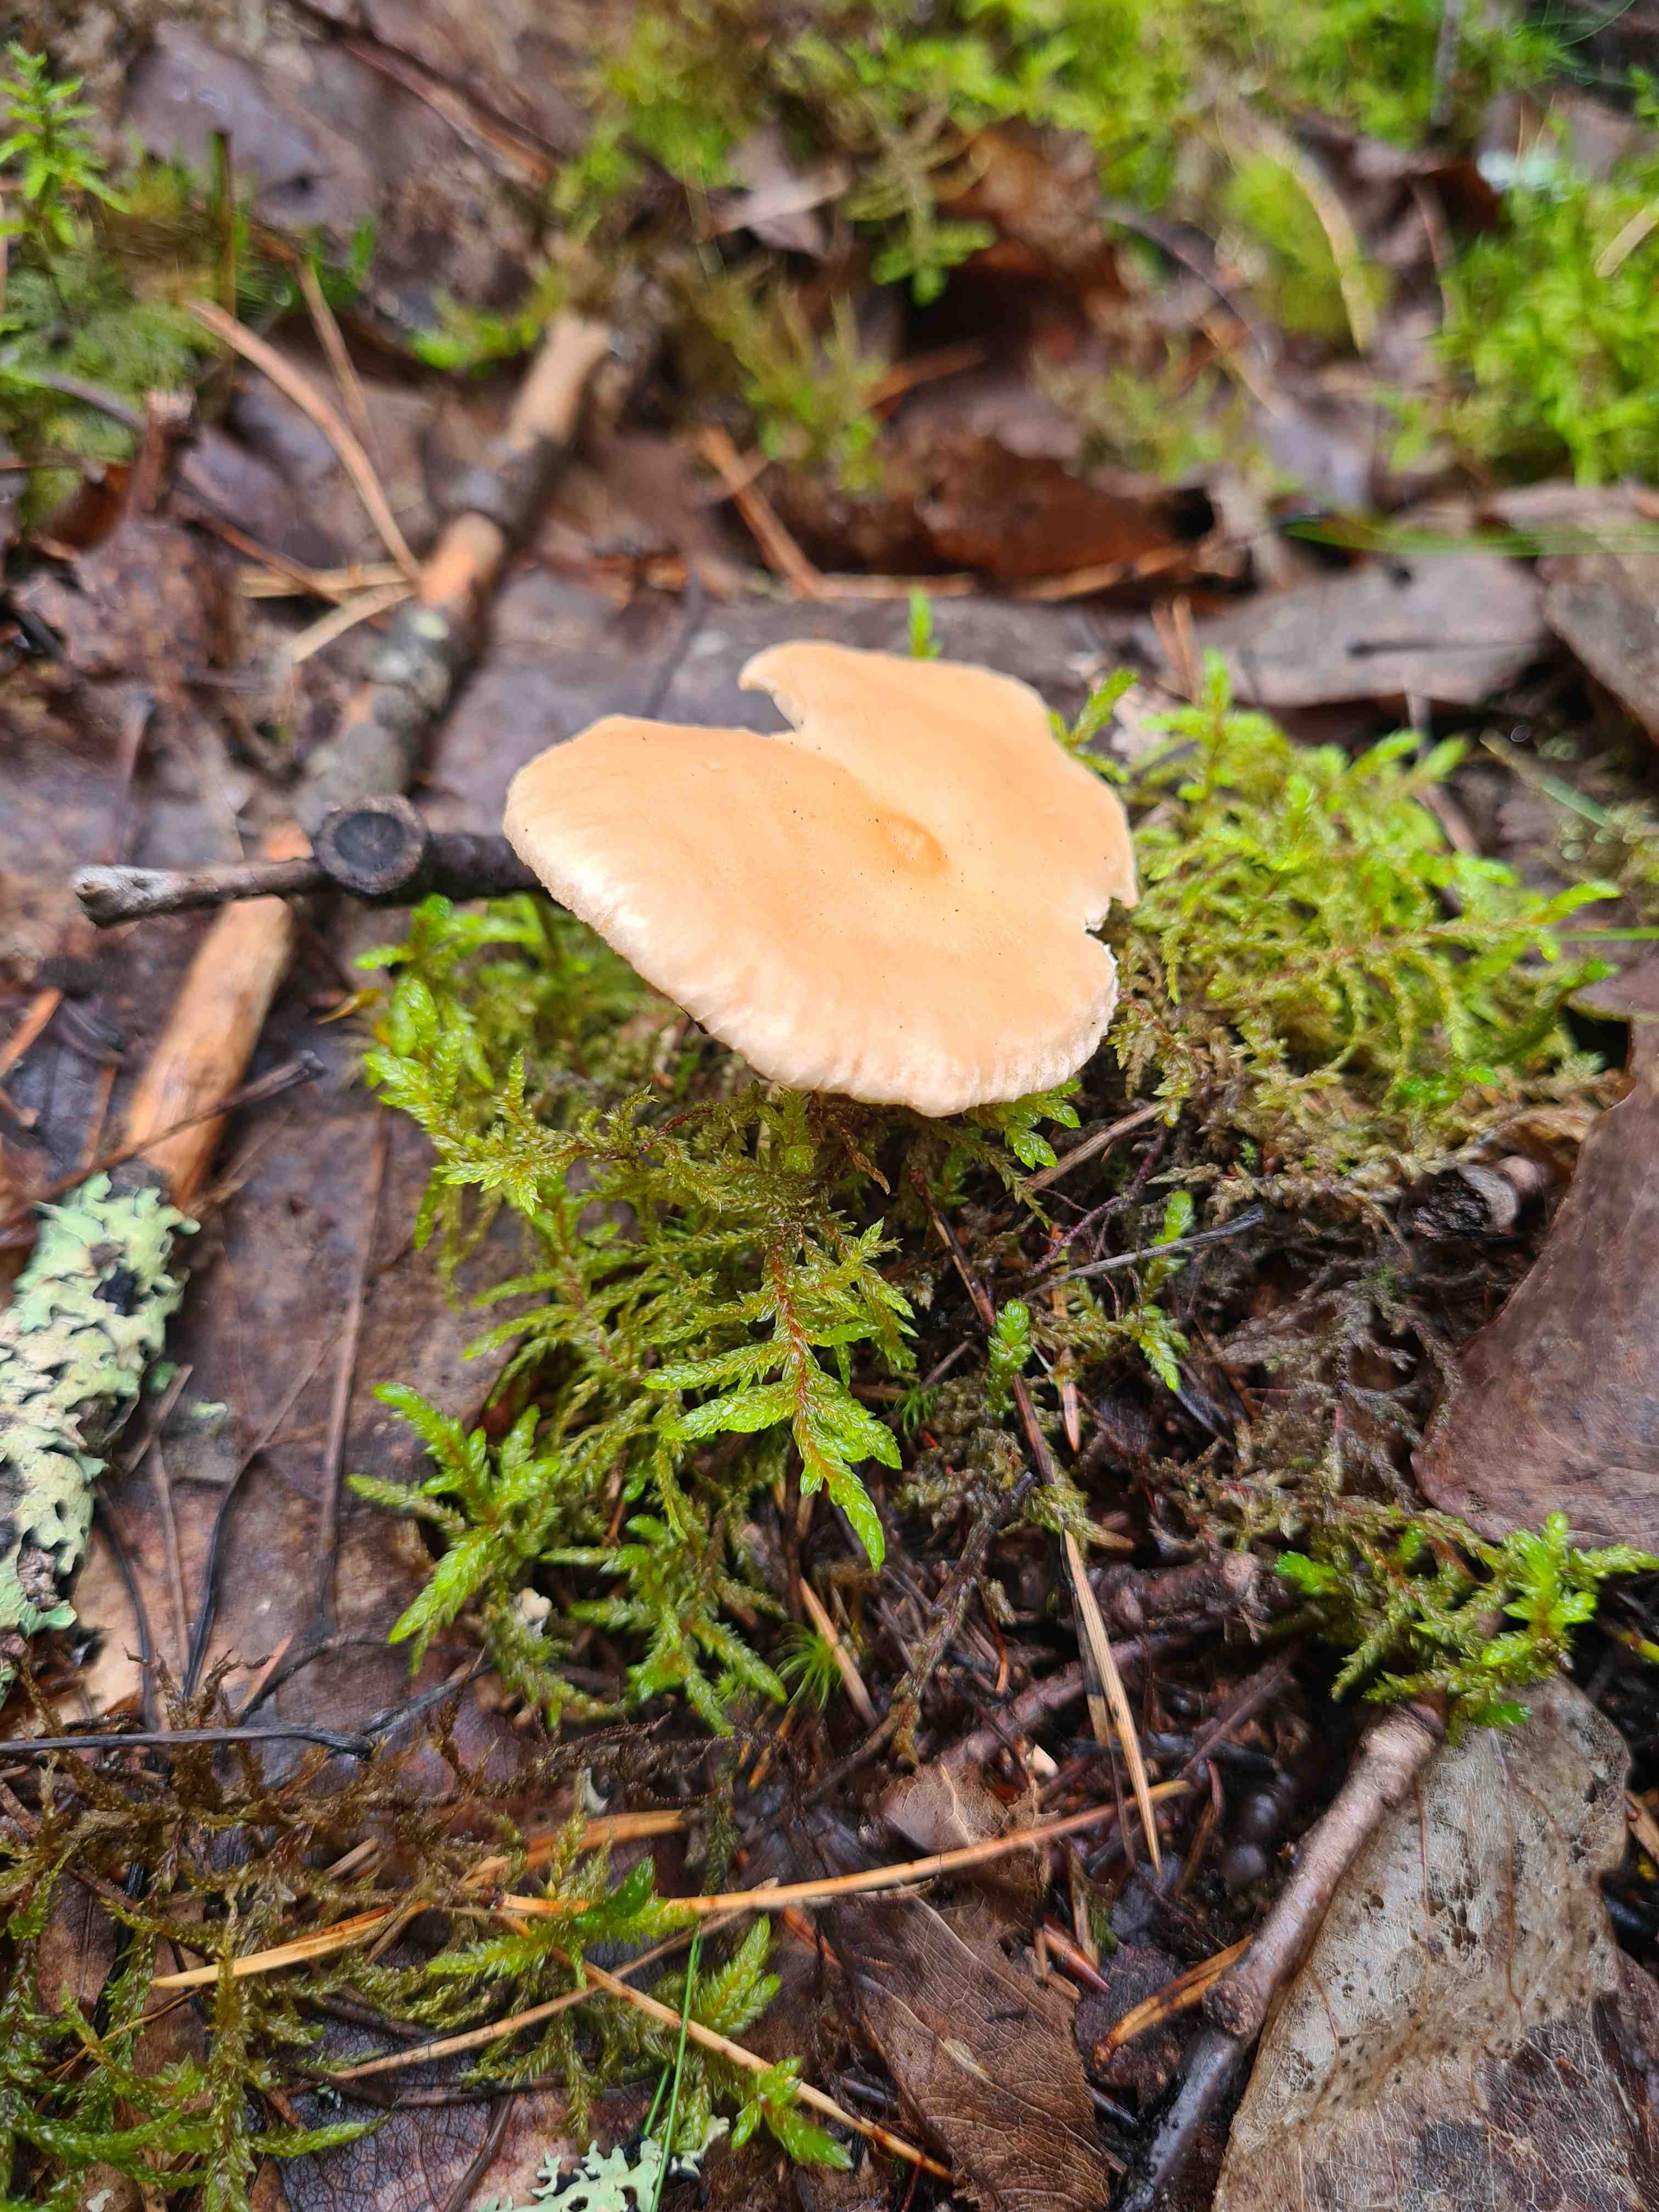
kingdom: Fungi
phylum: Basidiomycota
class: Agaricomycetes
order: Agaricales
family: Tricholomataceae
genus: Infundibulicybe
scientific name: Infundibulicybe gibba
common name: almindelig tragthat
